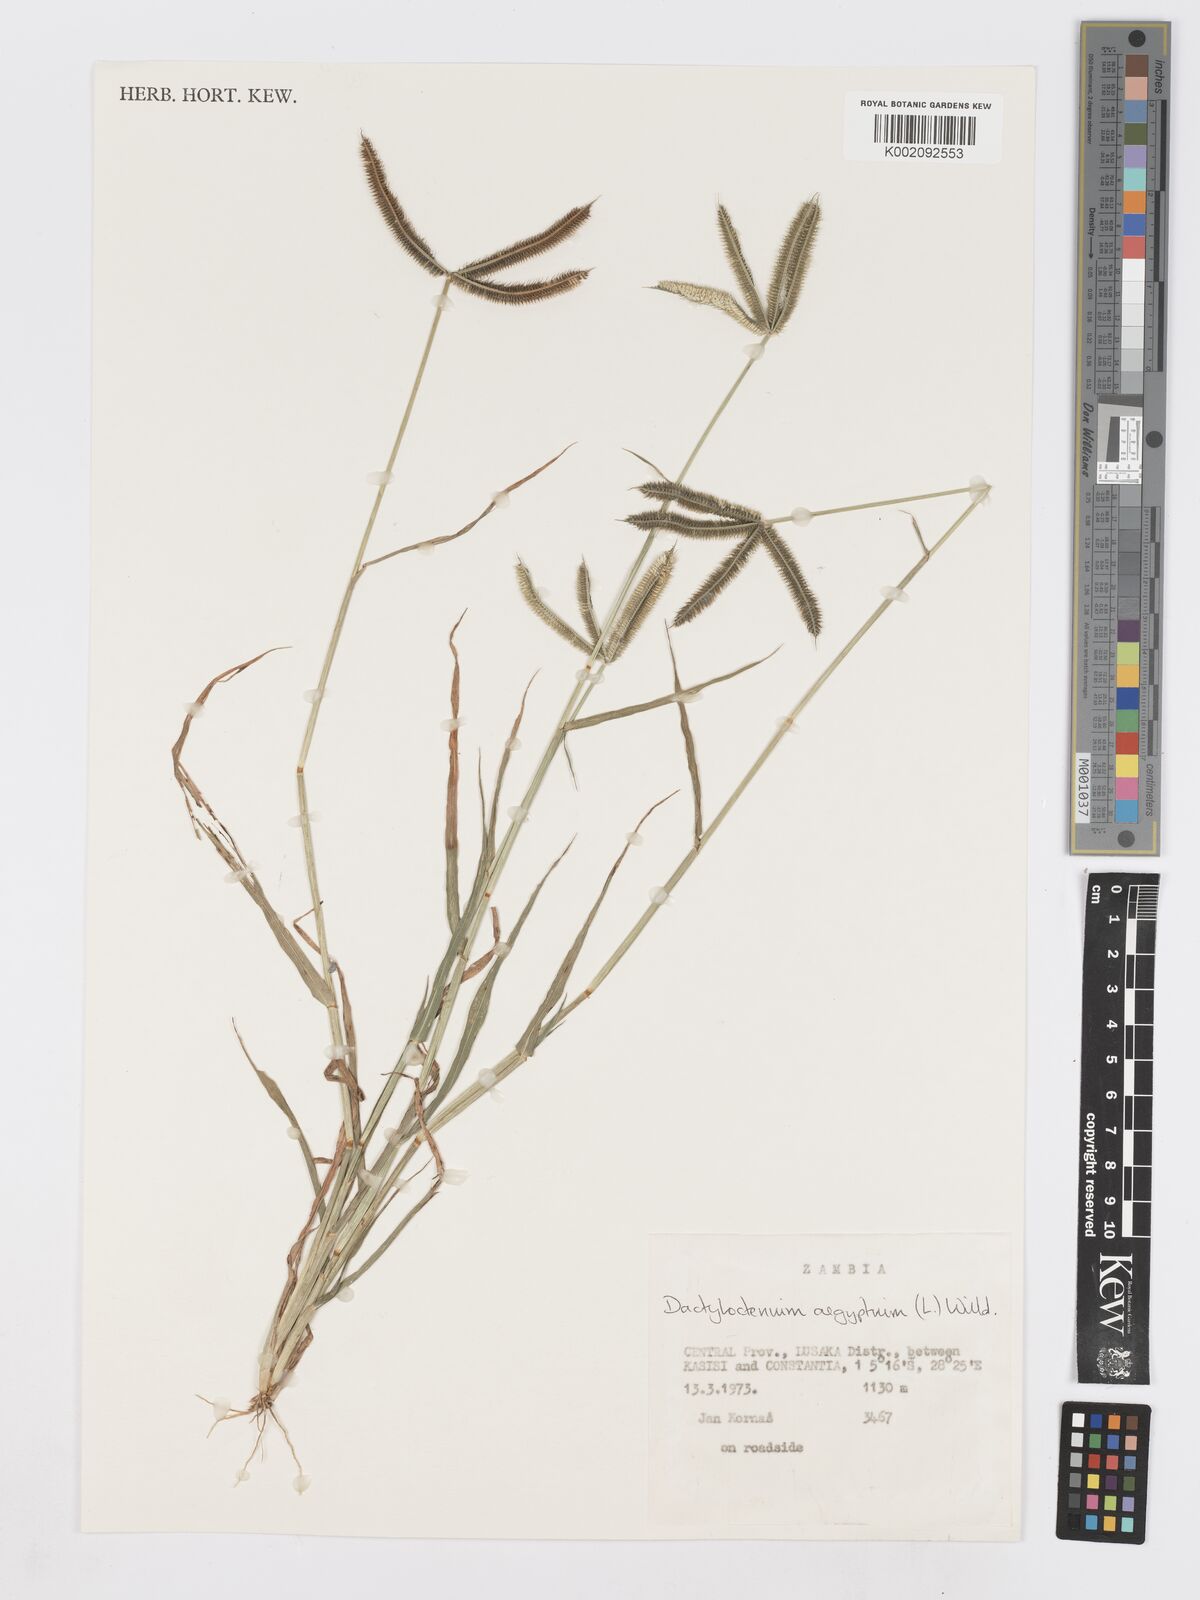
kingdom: Plantae
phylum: Tracheophyta
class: Liliopsida
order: Poales
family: Poaceae
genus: Dactyloctenium
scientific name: Dactyloctenium aegyptium
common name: Egyptian grass
